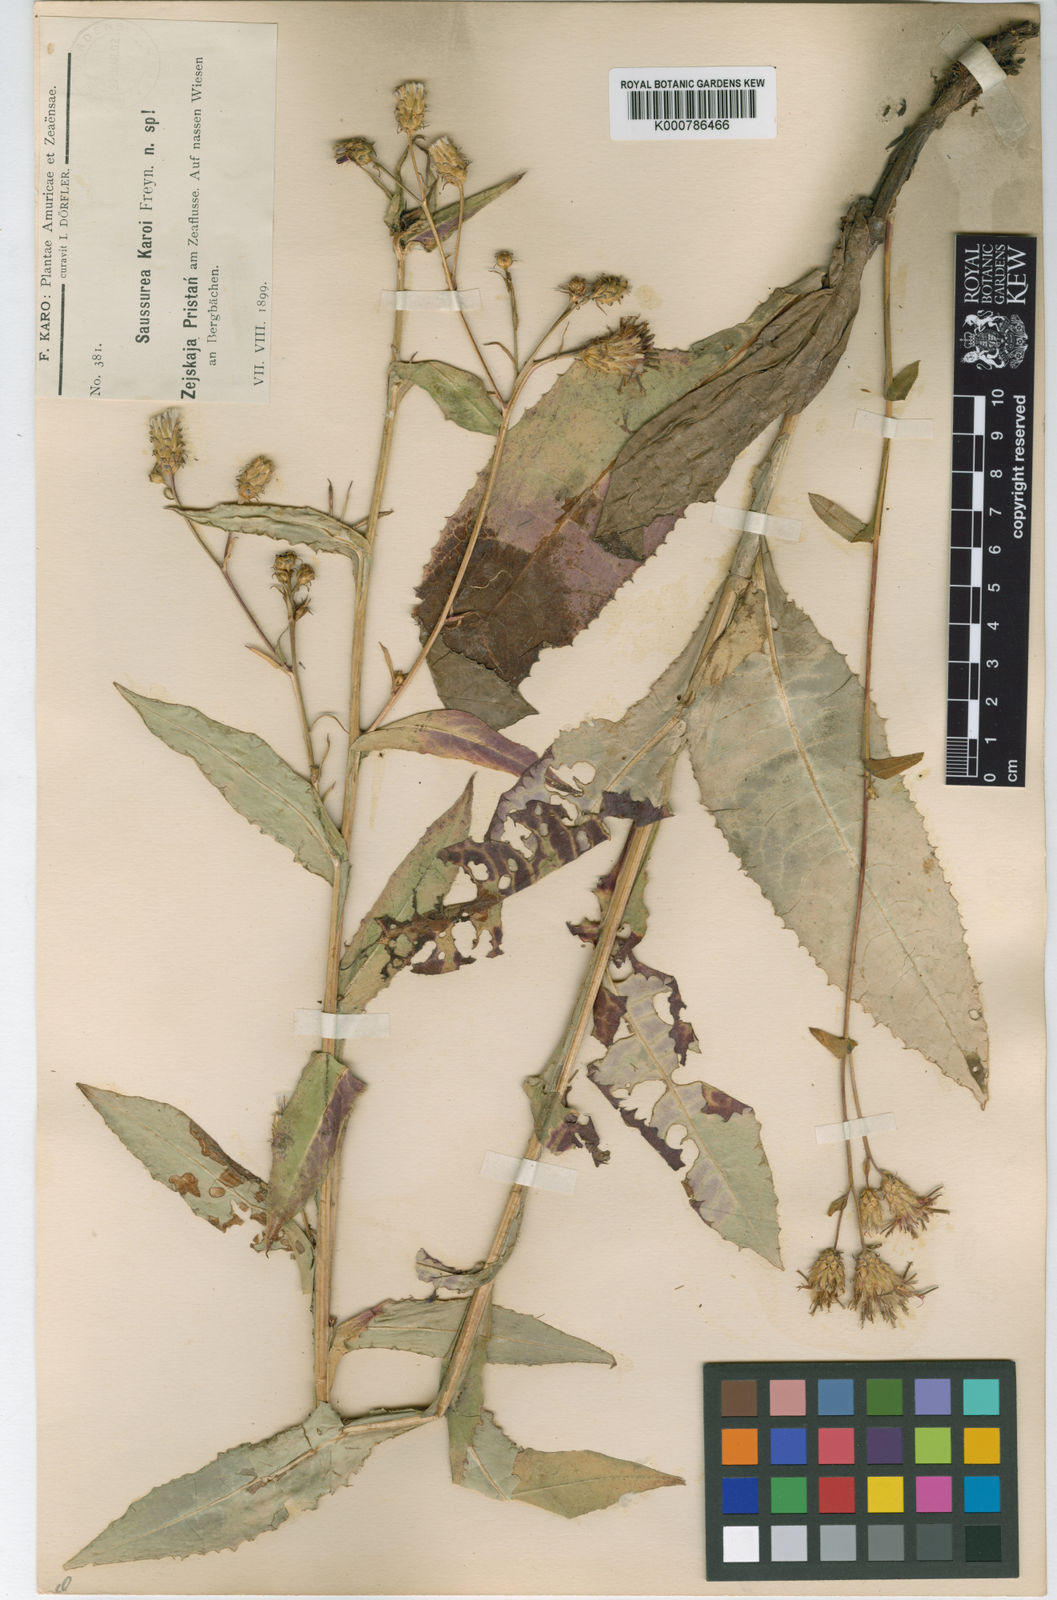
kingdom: Plantae
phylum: Tracheophyta
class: Magnoliopsida
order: Asterales
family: Asteraceae
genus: Saussurea
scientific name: Saussurea umbrosa
